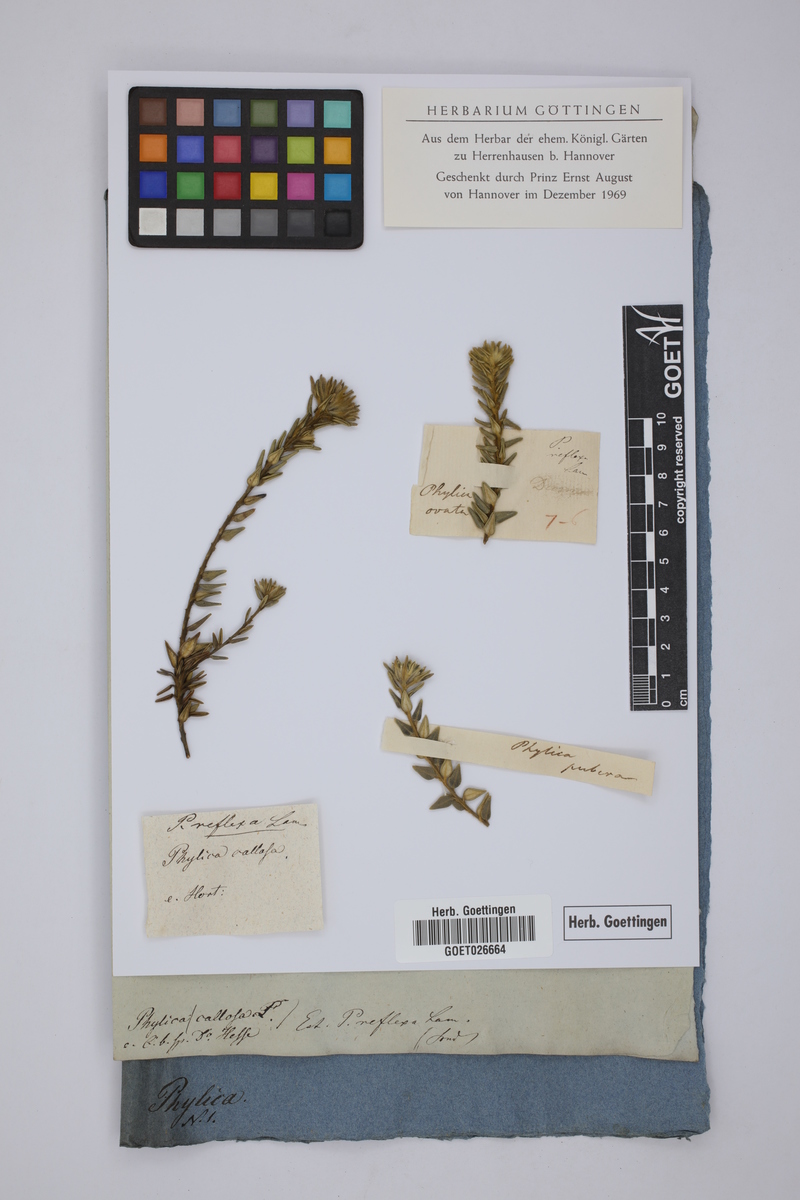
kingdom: Plantae
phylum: Tracheophyta
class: Magnoliopsida
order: Rosales
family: Rhamnaceae
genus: Phylica
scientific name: Phylica dioica
